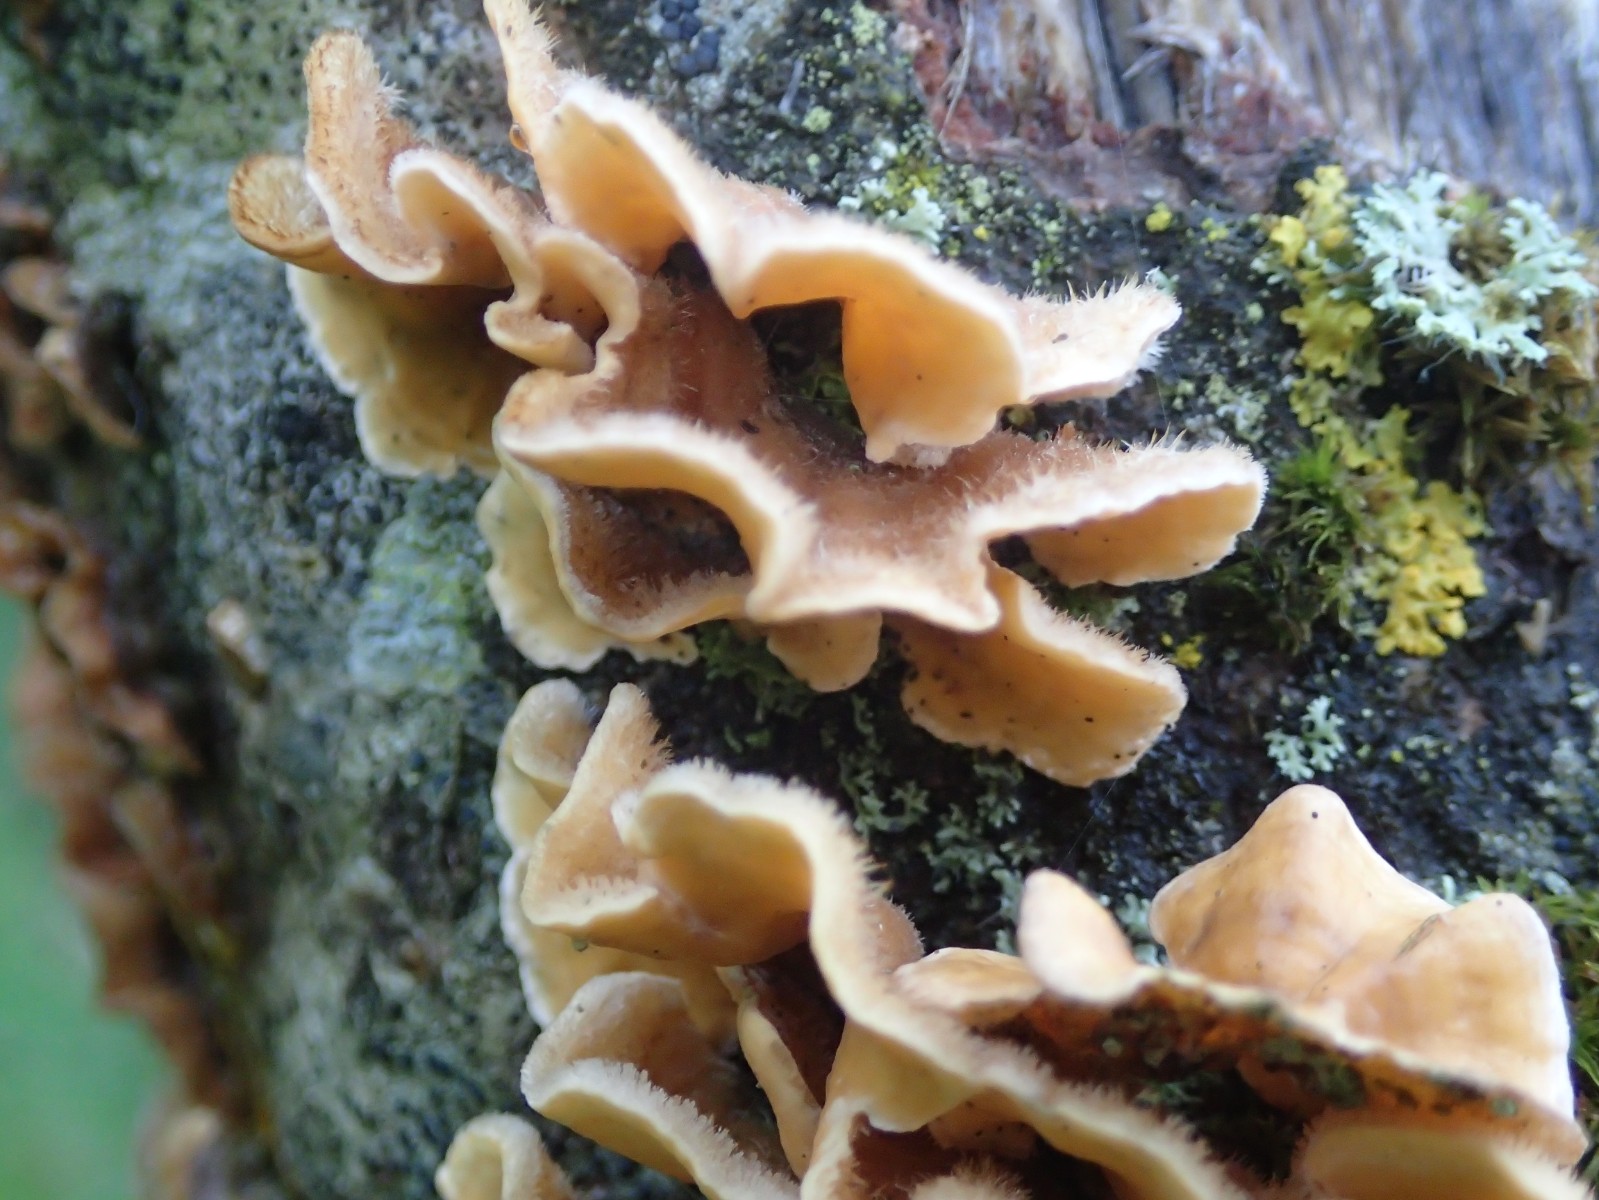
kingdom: Fungi
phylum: Basidiomycota
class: Agaricomycetes
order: Russulales
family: Stereaceae
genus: Stereum
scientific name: Stereum hirsutum
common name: håret lædersvamp
